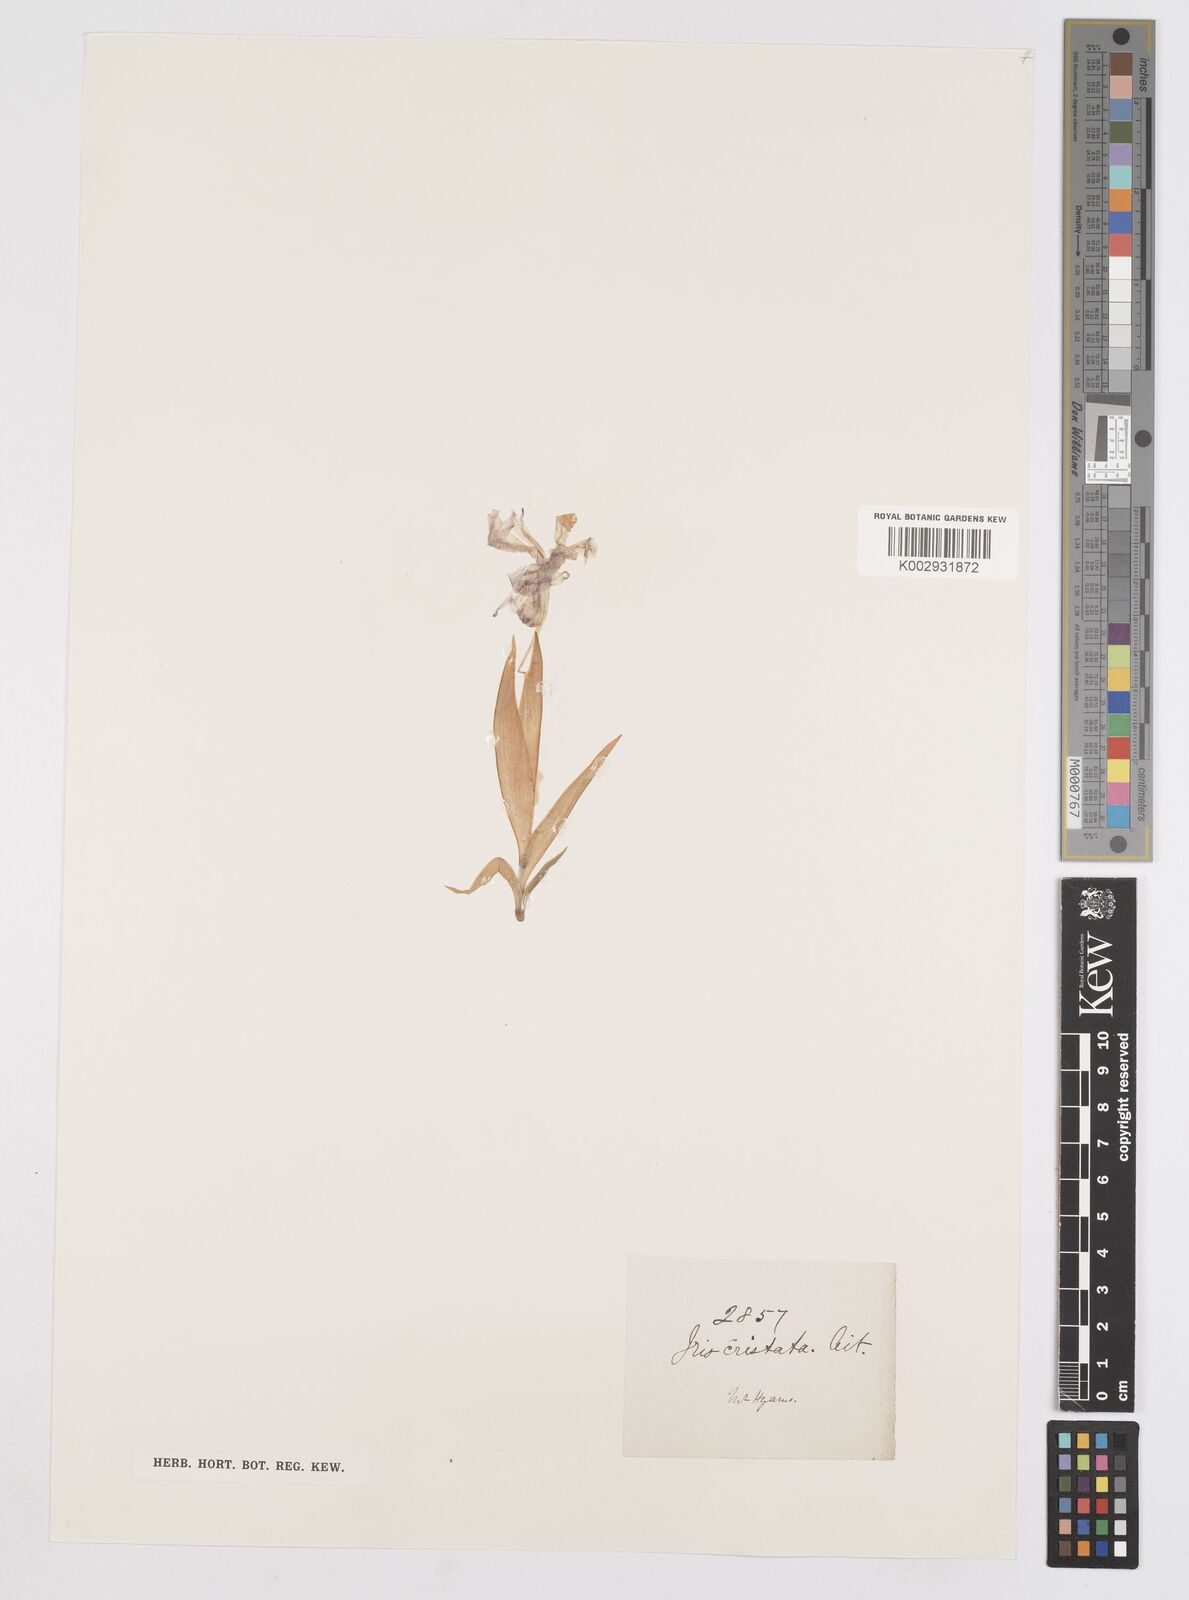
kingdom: Plantae
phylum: Tracheophyta
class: Liliopsida
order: Asparagales
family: Iridaceae
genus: Iris
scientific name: Iris cristata
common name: Crested iris
